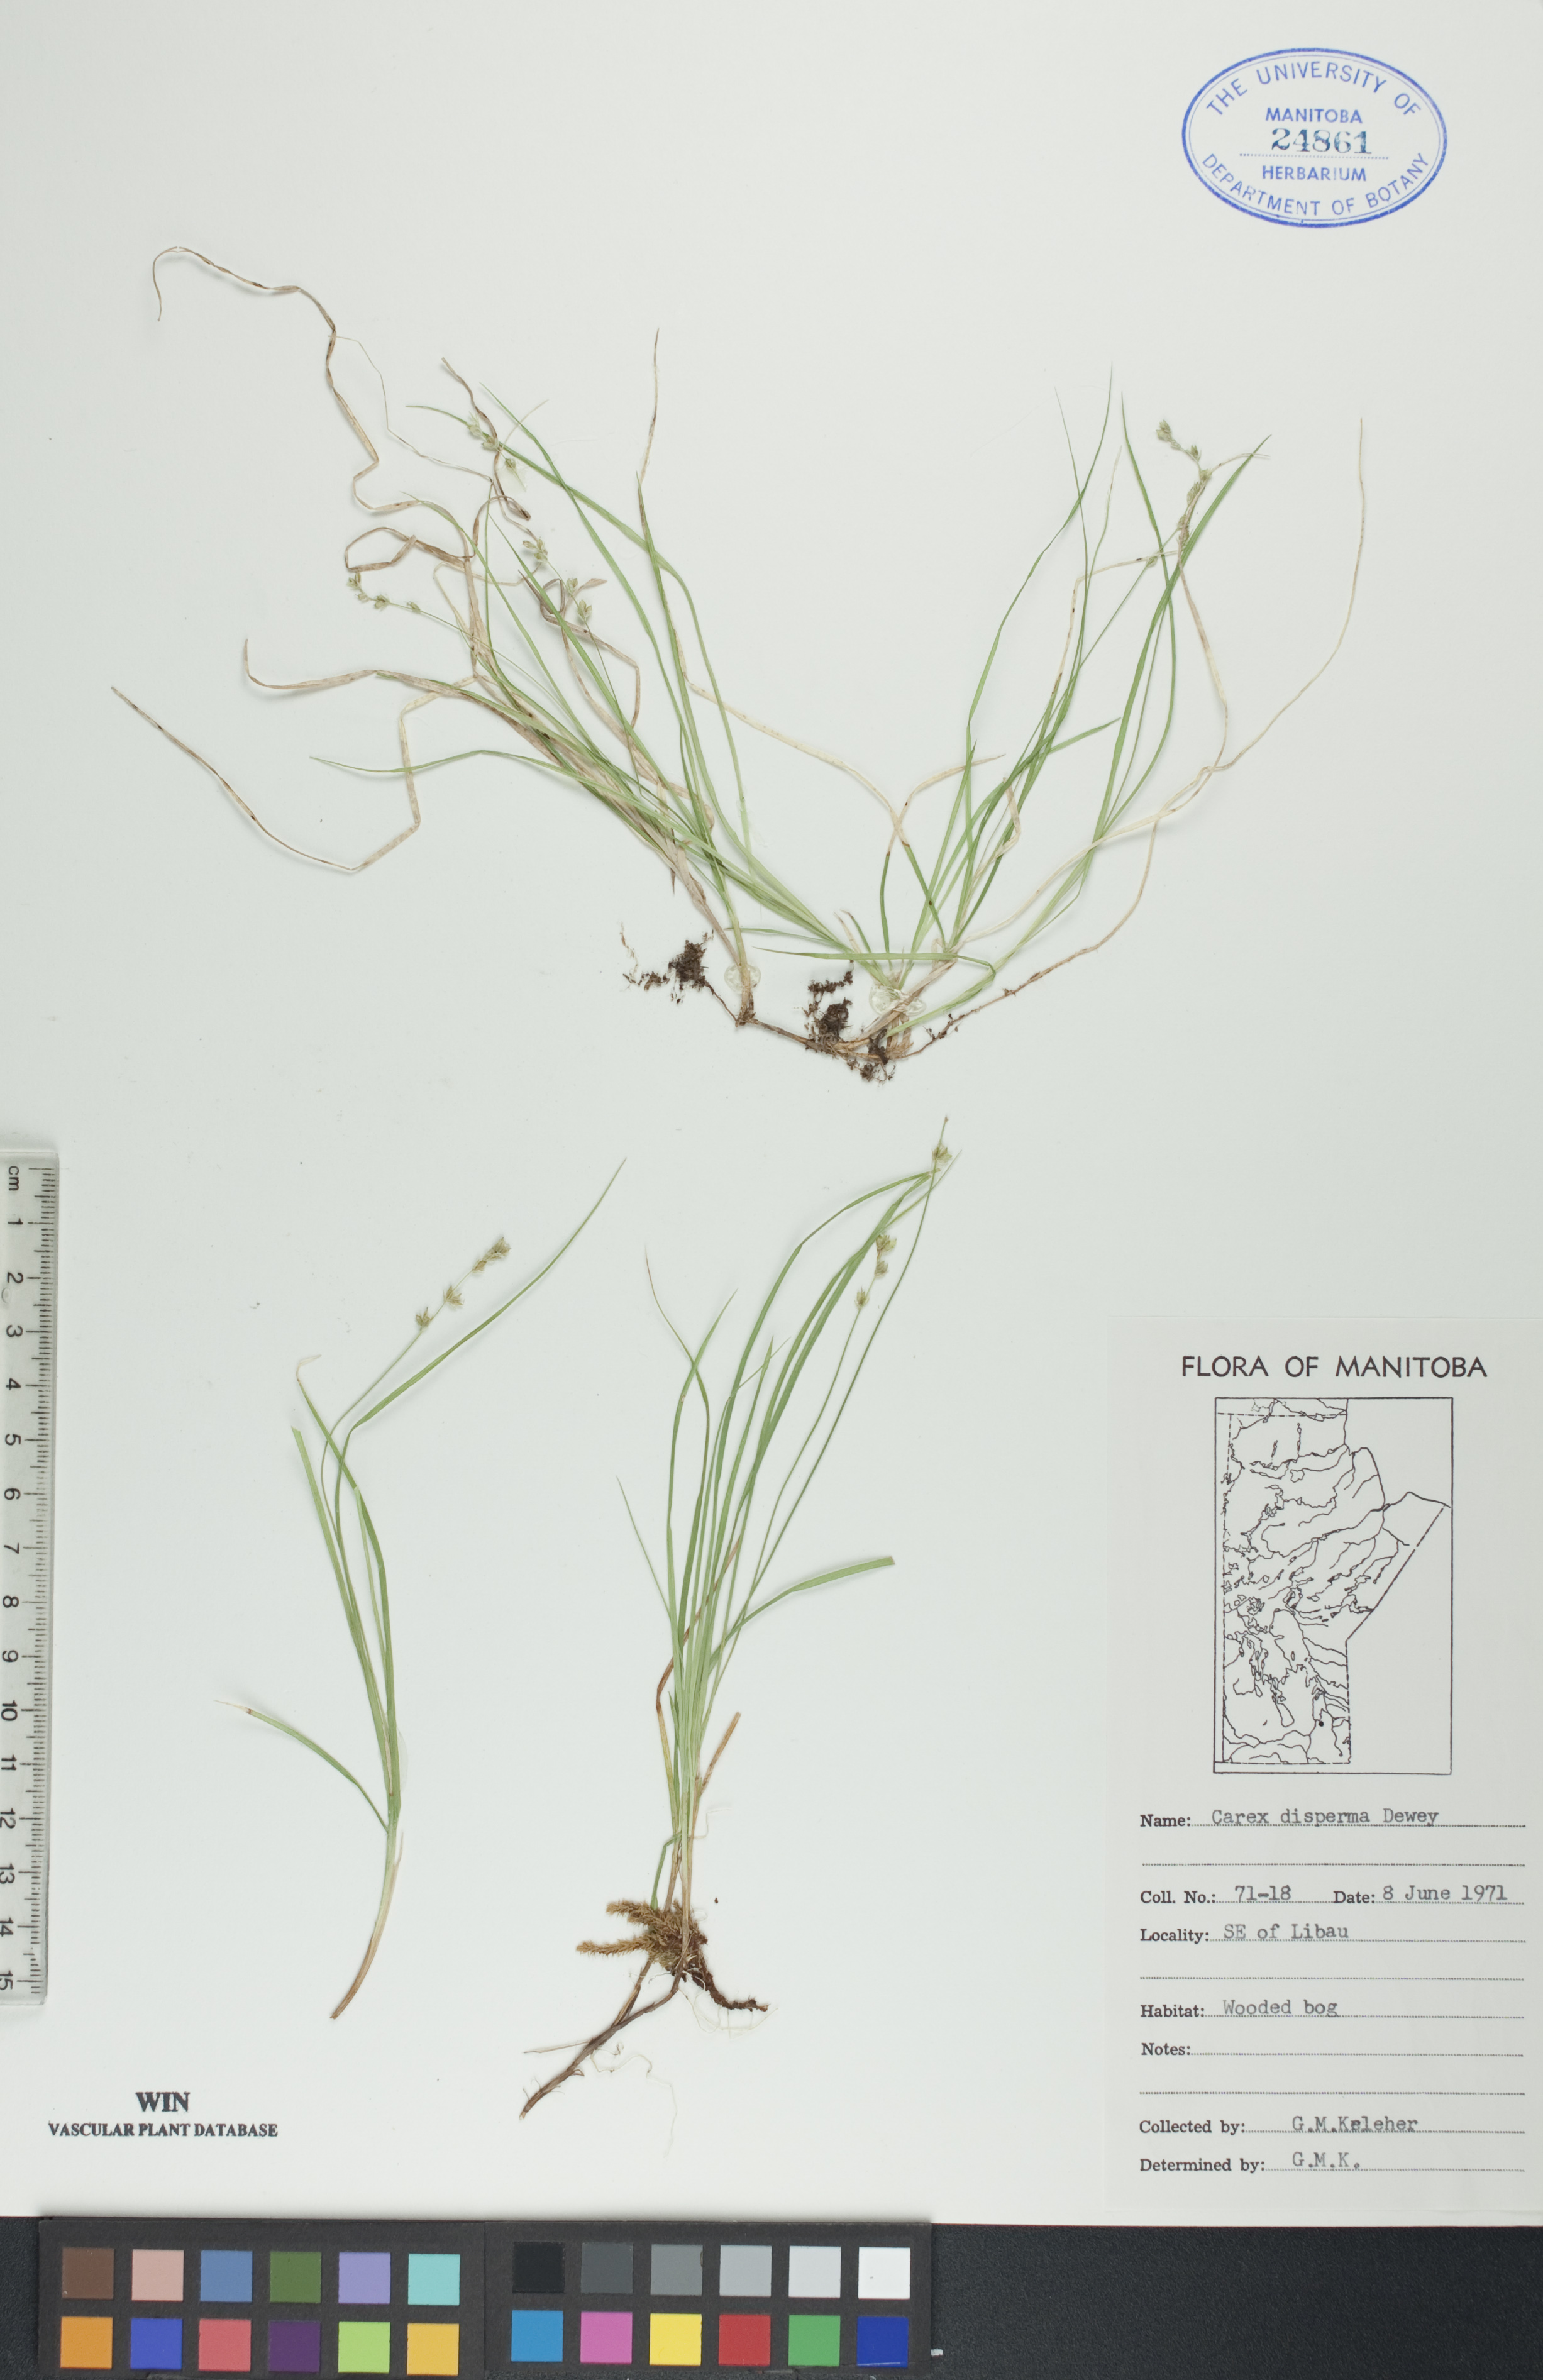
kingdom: Plantae
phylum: Tracheophyta
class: Liliopsida
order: Poales
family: Cyperaceae
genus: Carex
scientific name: Carex disperma
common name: Short-leaved sedge
